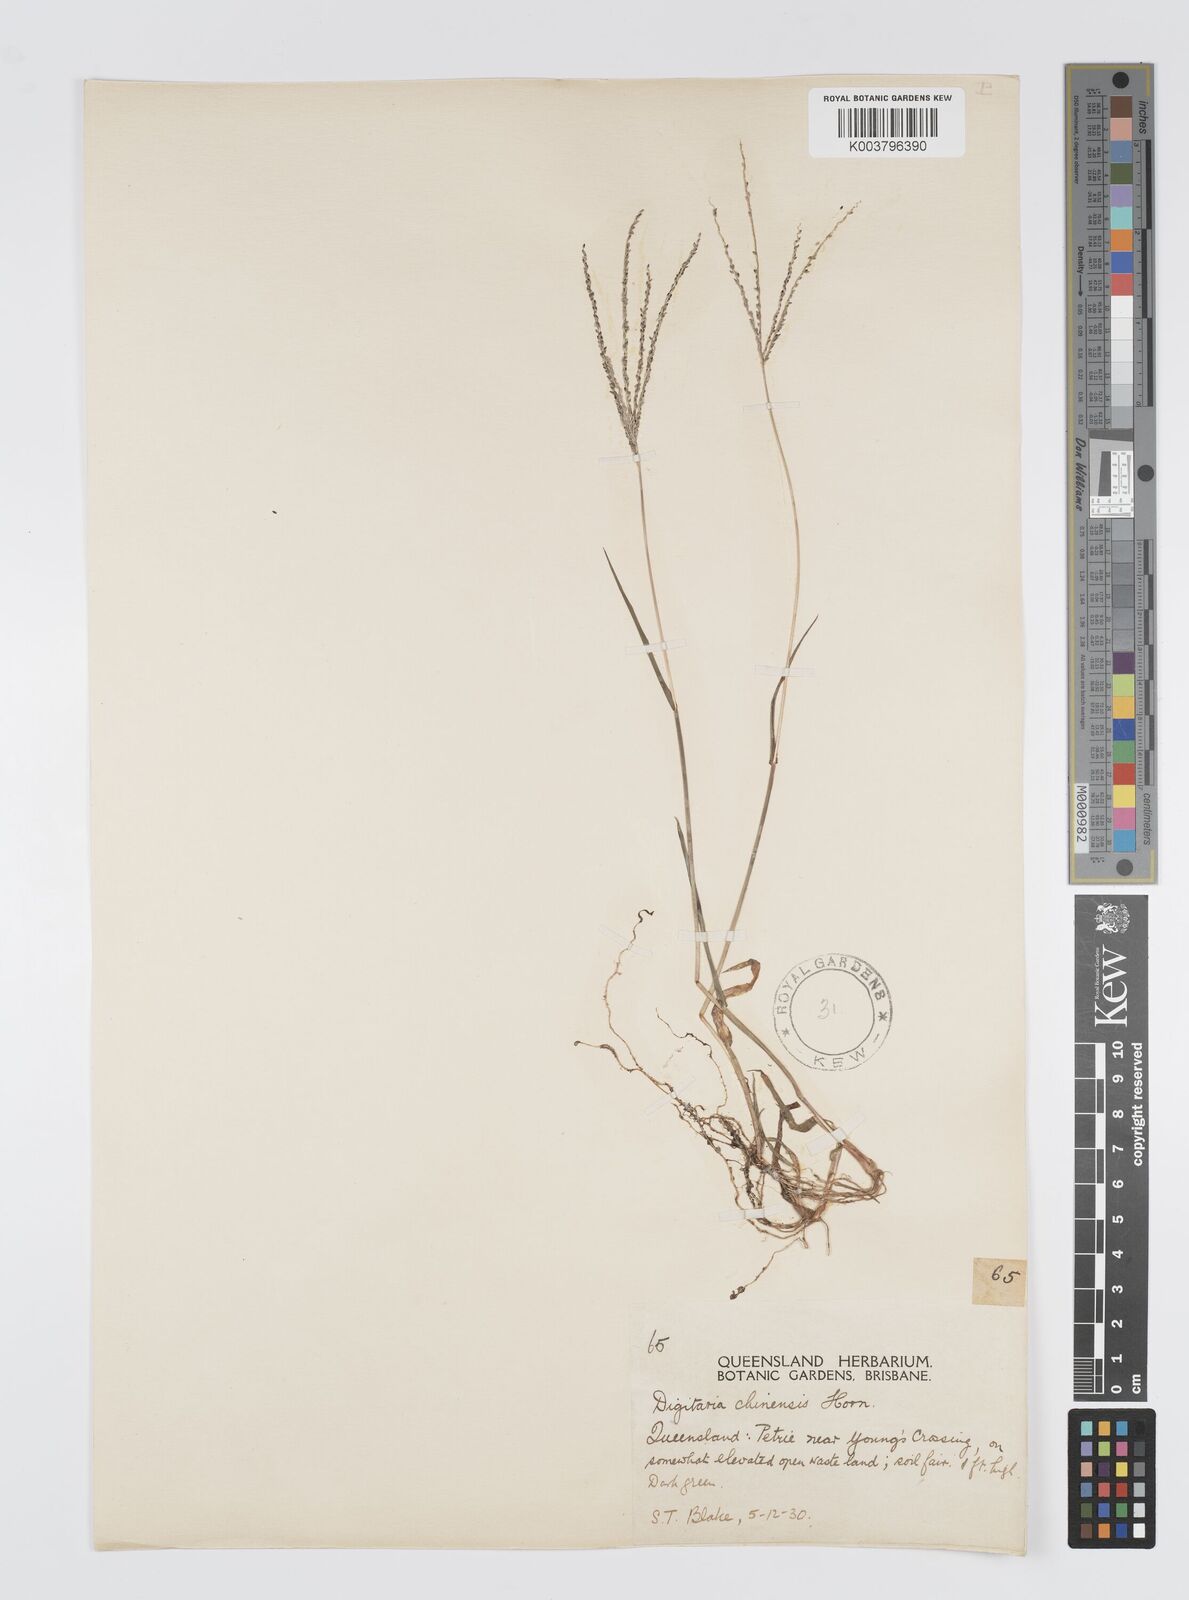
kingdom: Plantae
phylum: Tracheophyta
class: Liliopsida
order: Poales
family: Poaceae
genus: Digitaria
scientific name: Digitaria violascens
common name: Violet crabgrass
